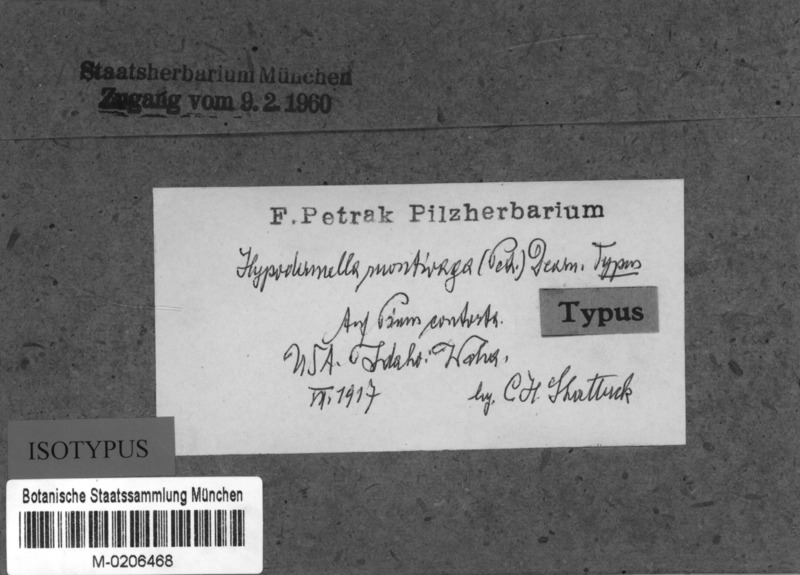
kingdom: Fungi
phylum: Ascomycota
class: Leotiomycetes
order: Rhytismatales
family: Rhytismataceae
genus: Lophodermella
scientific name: Lophodermella montivaga
